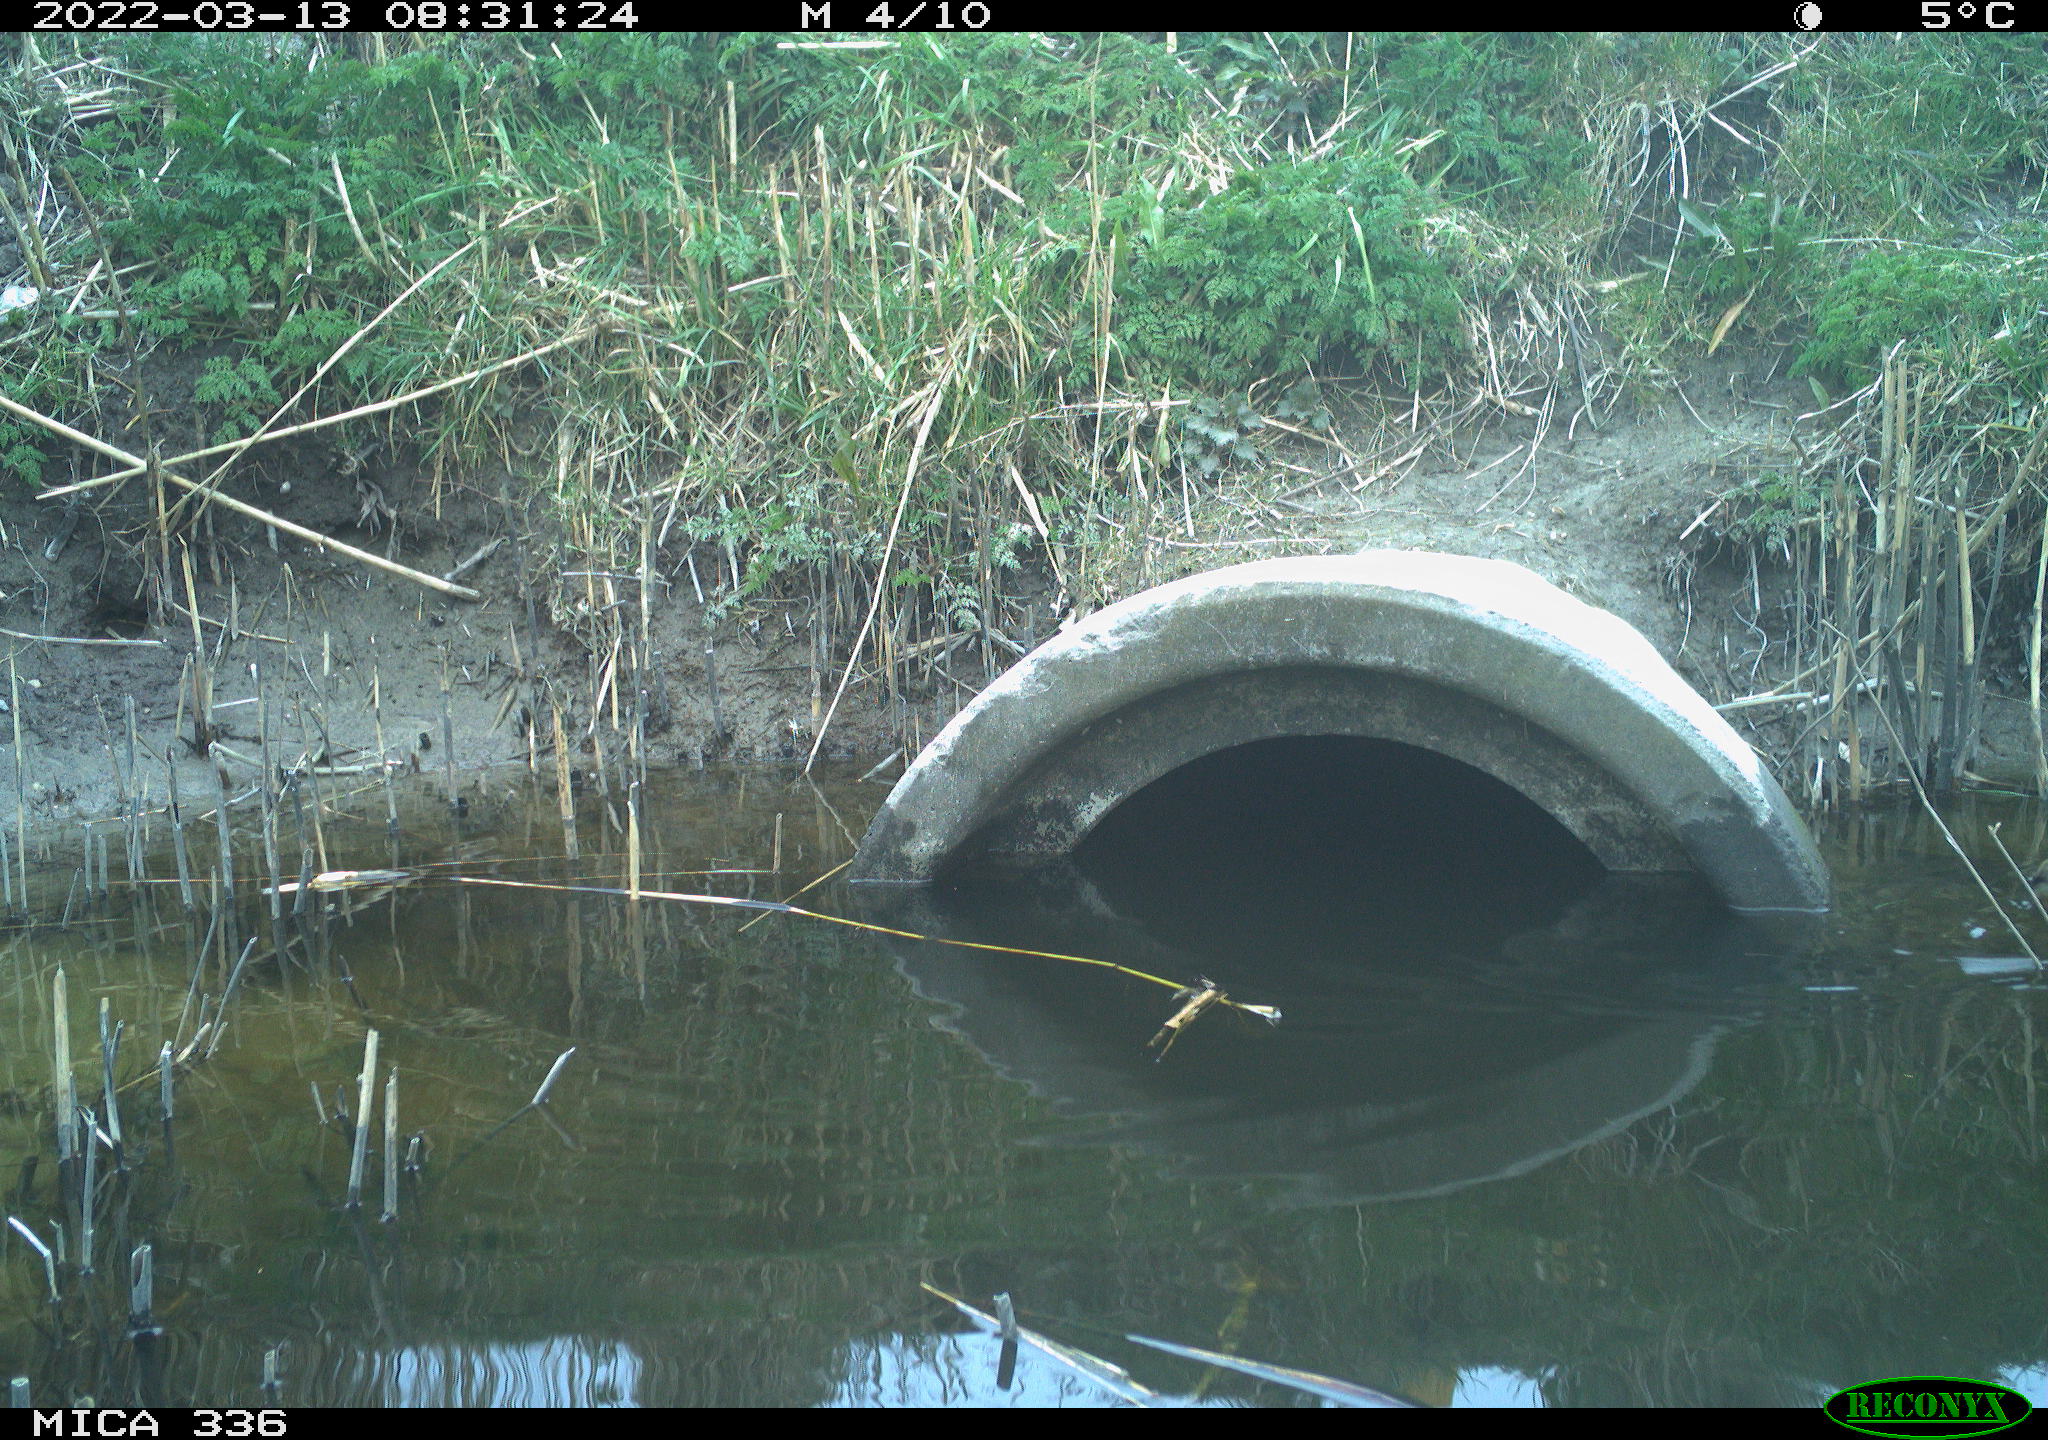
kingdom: Animalia
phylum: Chordata
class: Aves
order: Gruiformes
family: Rallidae
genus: Rallus
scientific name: Rallus aquaticus
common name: Water rail
